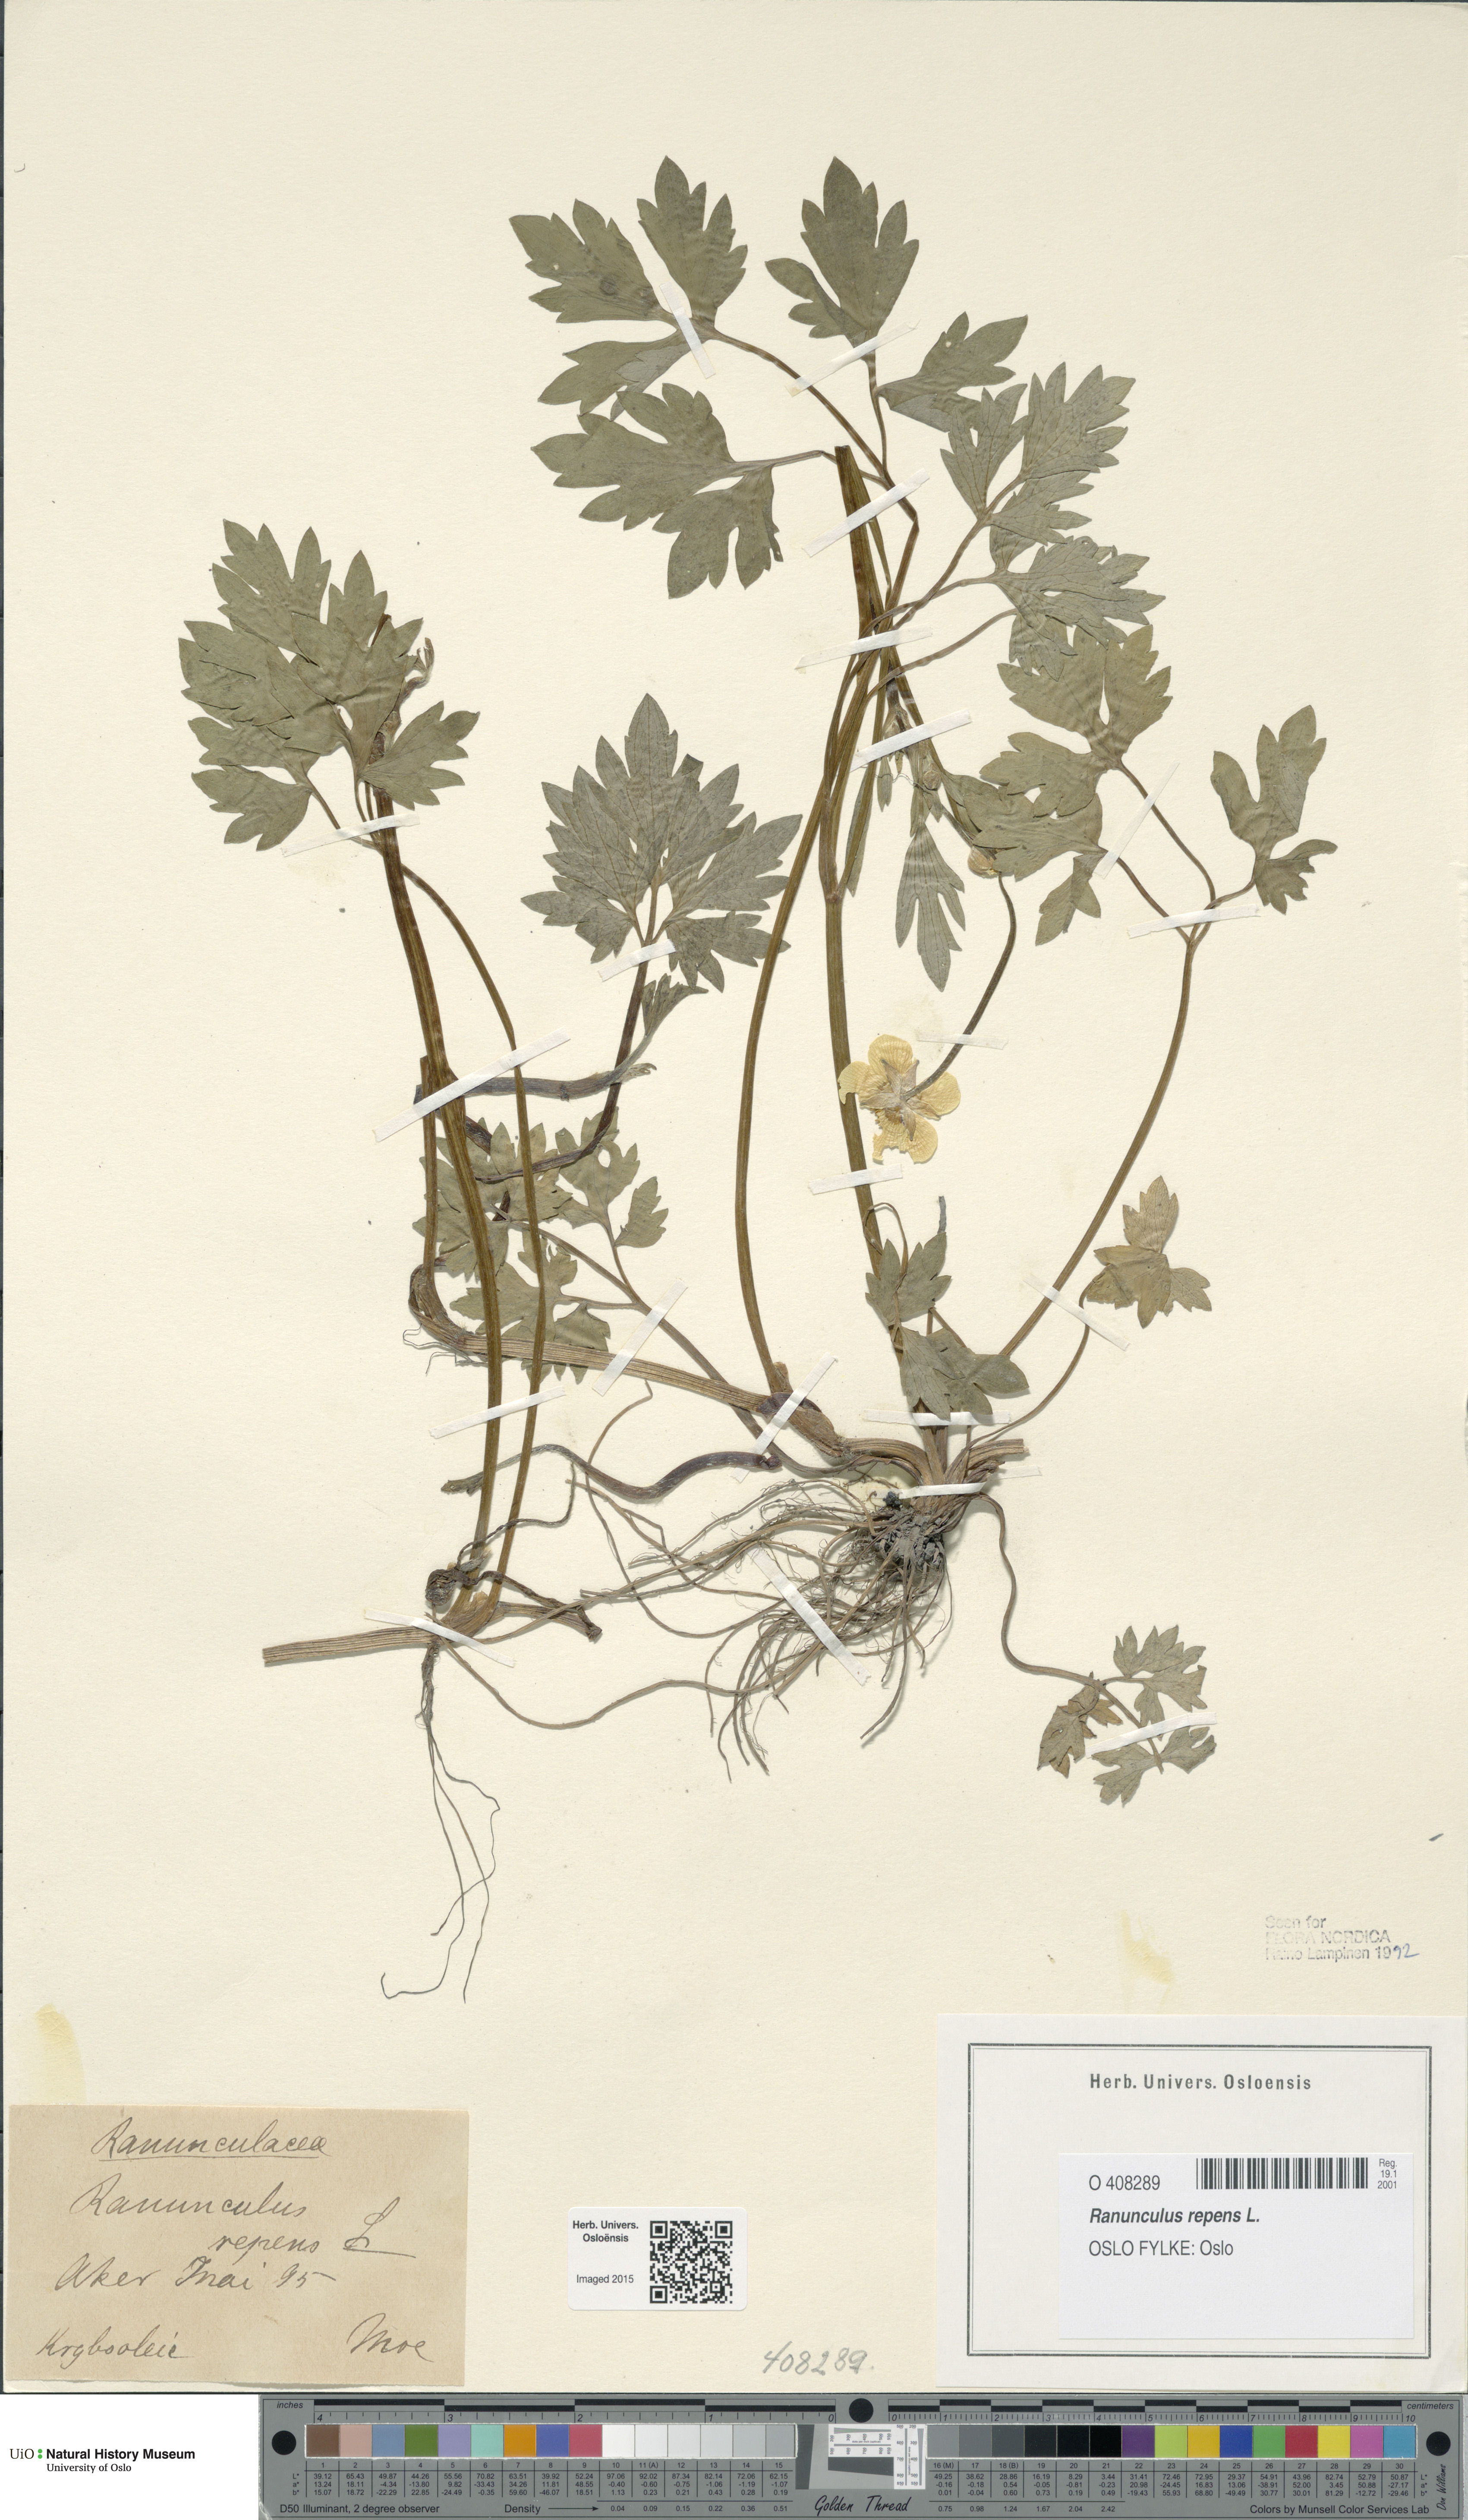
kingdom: Plantae
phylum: Tracheophyta
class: Magnoliopsida
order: Ranunculales
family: Ranunculaceae
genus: Ranunculus
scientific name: Ranunculus repens
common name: Creeping buttercup
